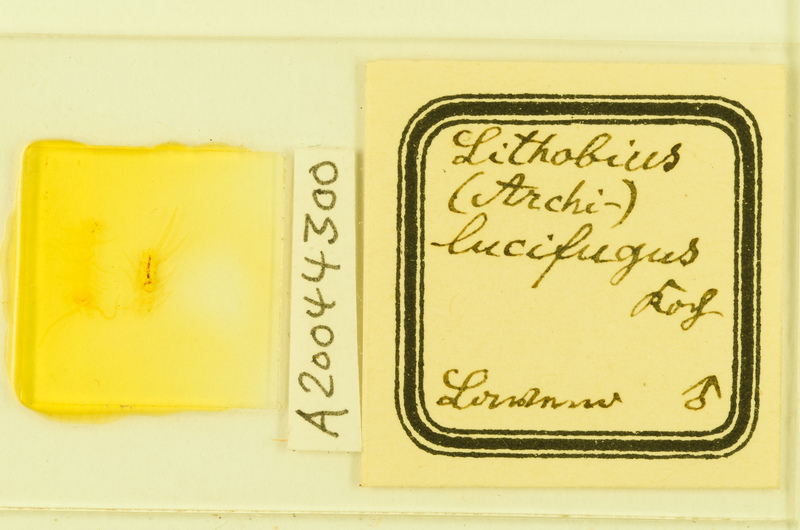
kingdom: Animalia
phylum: Arthropoda
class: Chilopoda
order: Lithobiomorpha
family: Lithobiidae
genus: Lithobius
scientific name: Lithobius lucifugus
